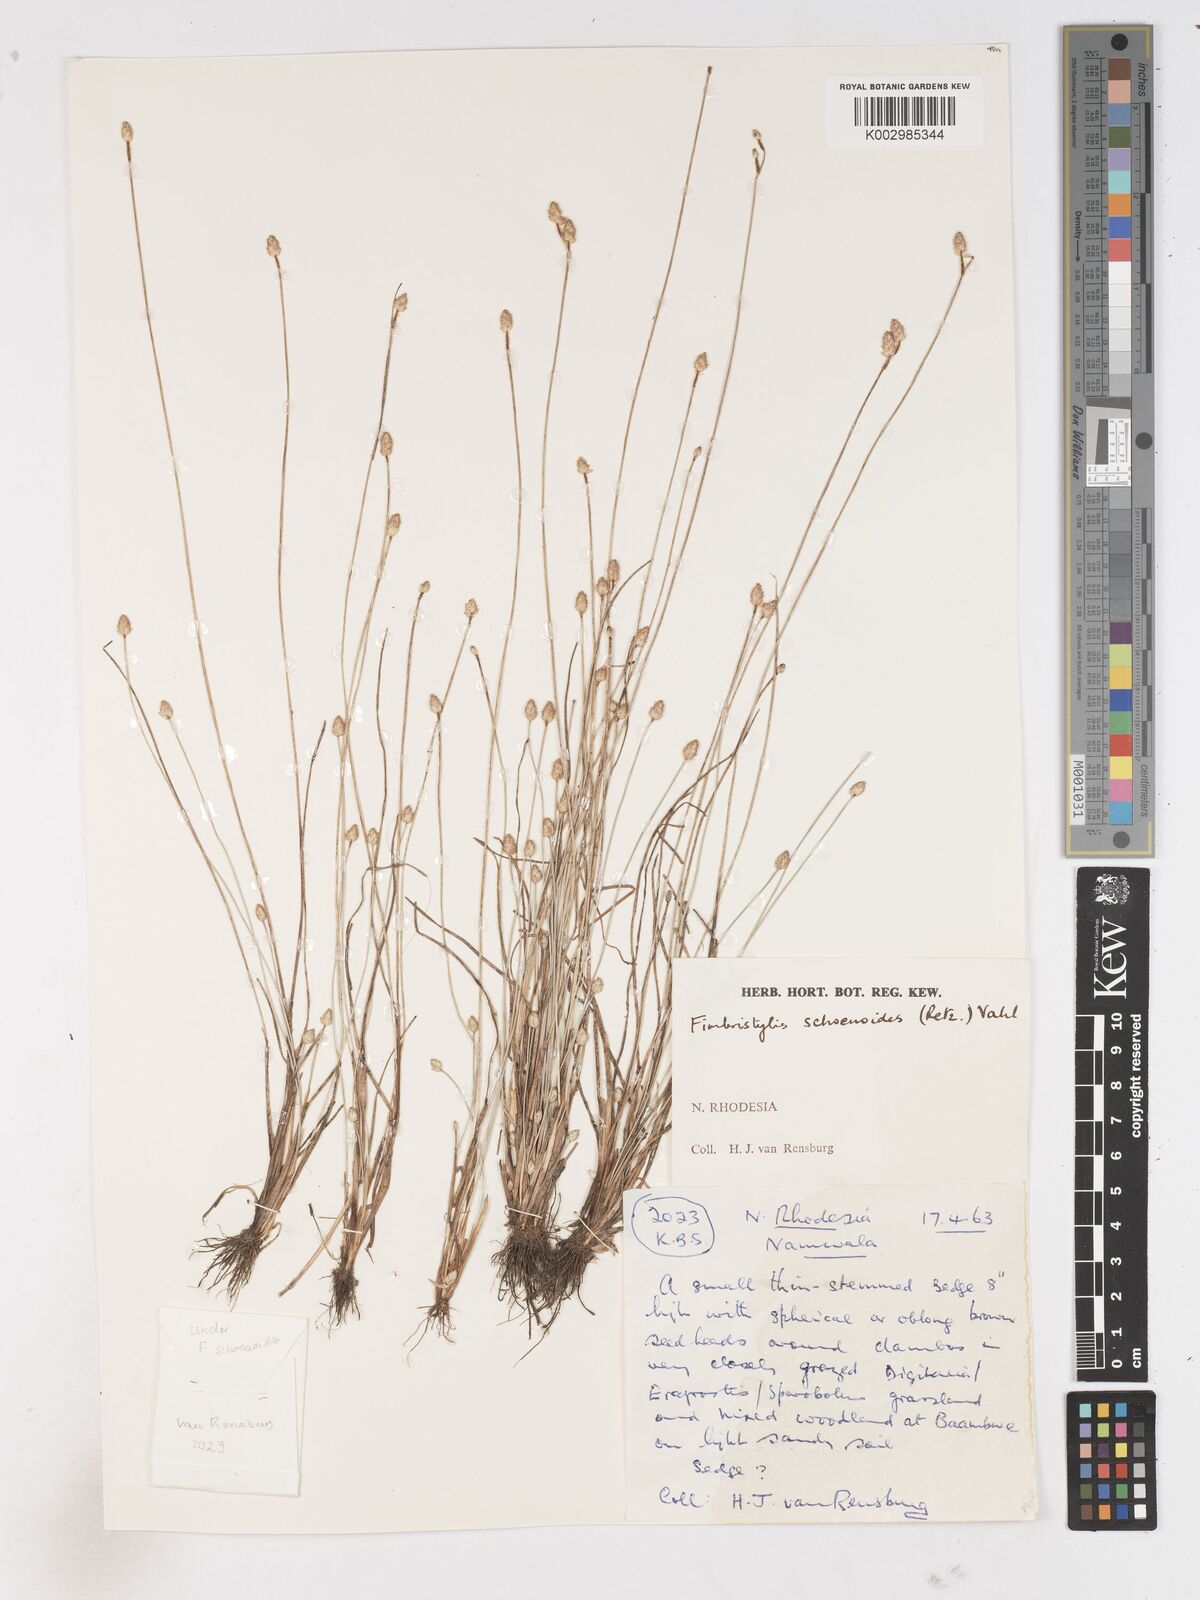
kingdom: Plantae
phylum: Tracheophyta
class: Liliopsida
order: Poales
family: Cyperaceae
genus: Fimbristylis
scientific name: Fimbristylis schoenoides
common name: Ditch fimbry
